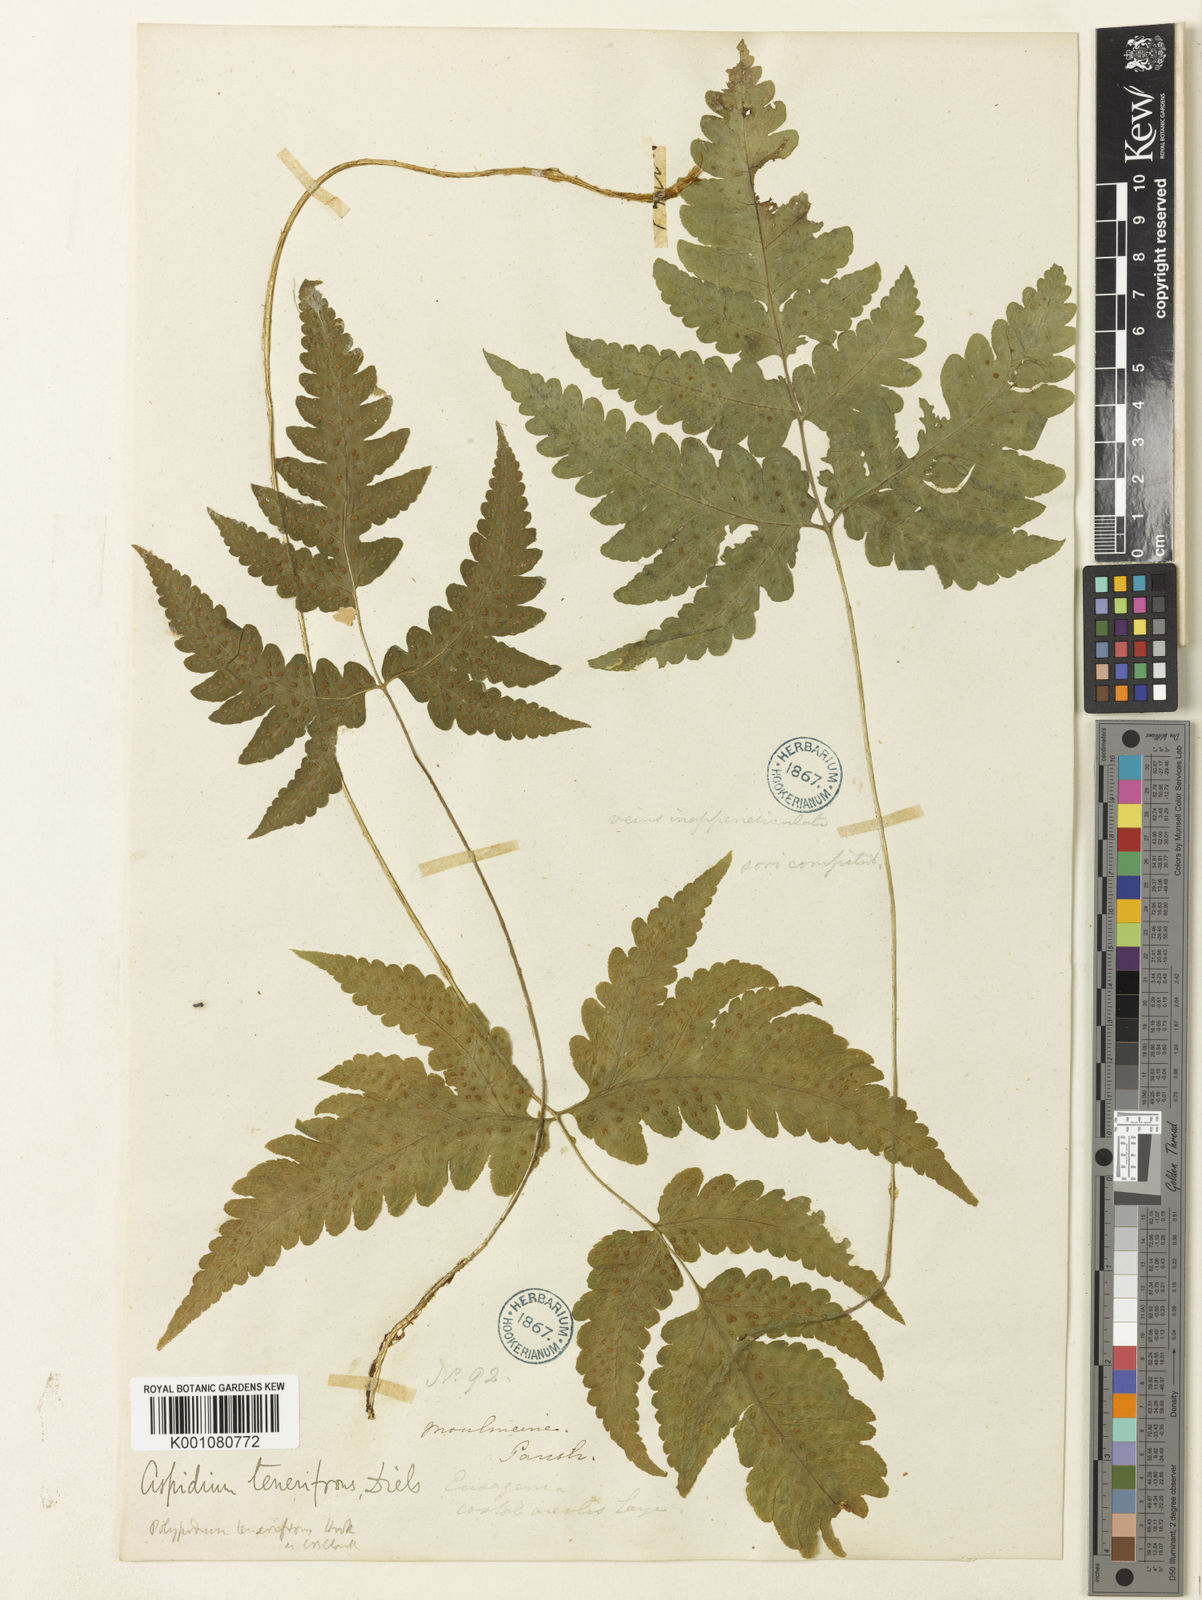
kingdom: Plantae
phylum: Tracheophyta
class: Polypodiopsida
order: Polypodiales
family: Tectariaceae
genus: Tectaria
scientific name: Tectaria tenerifrons
